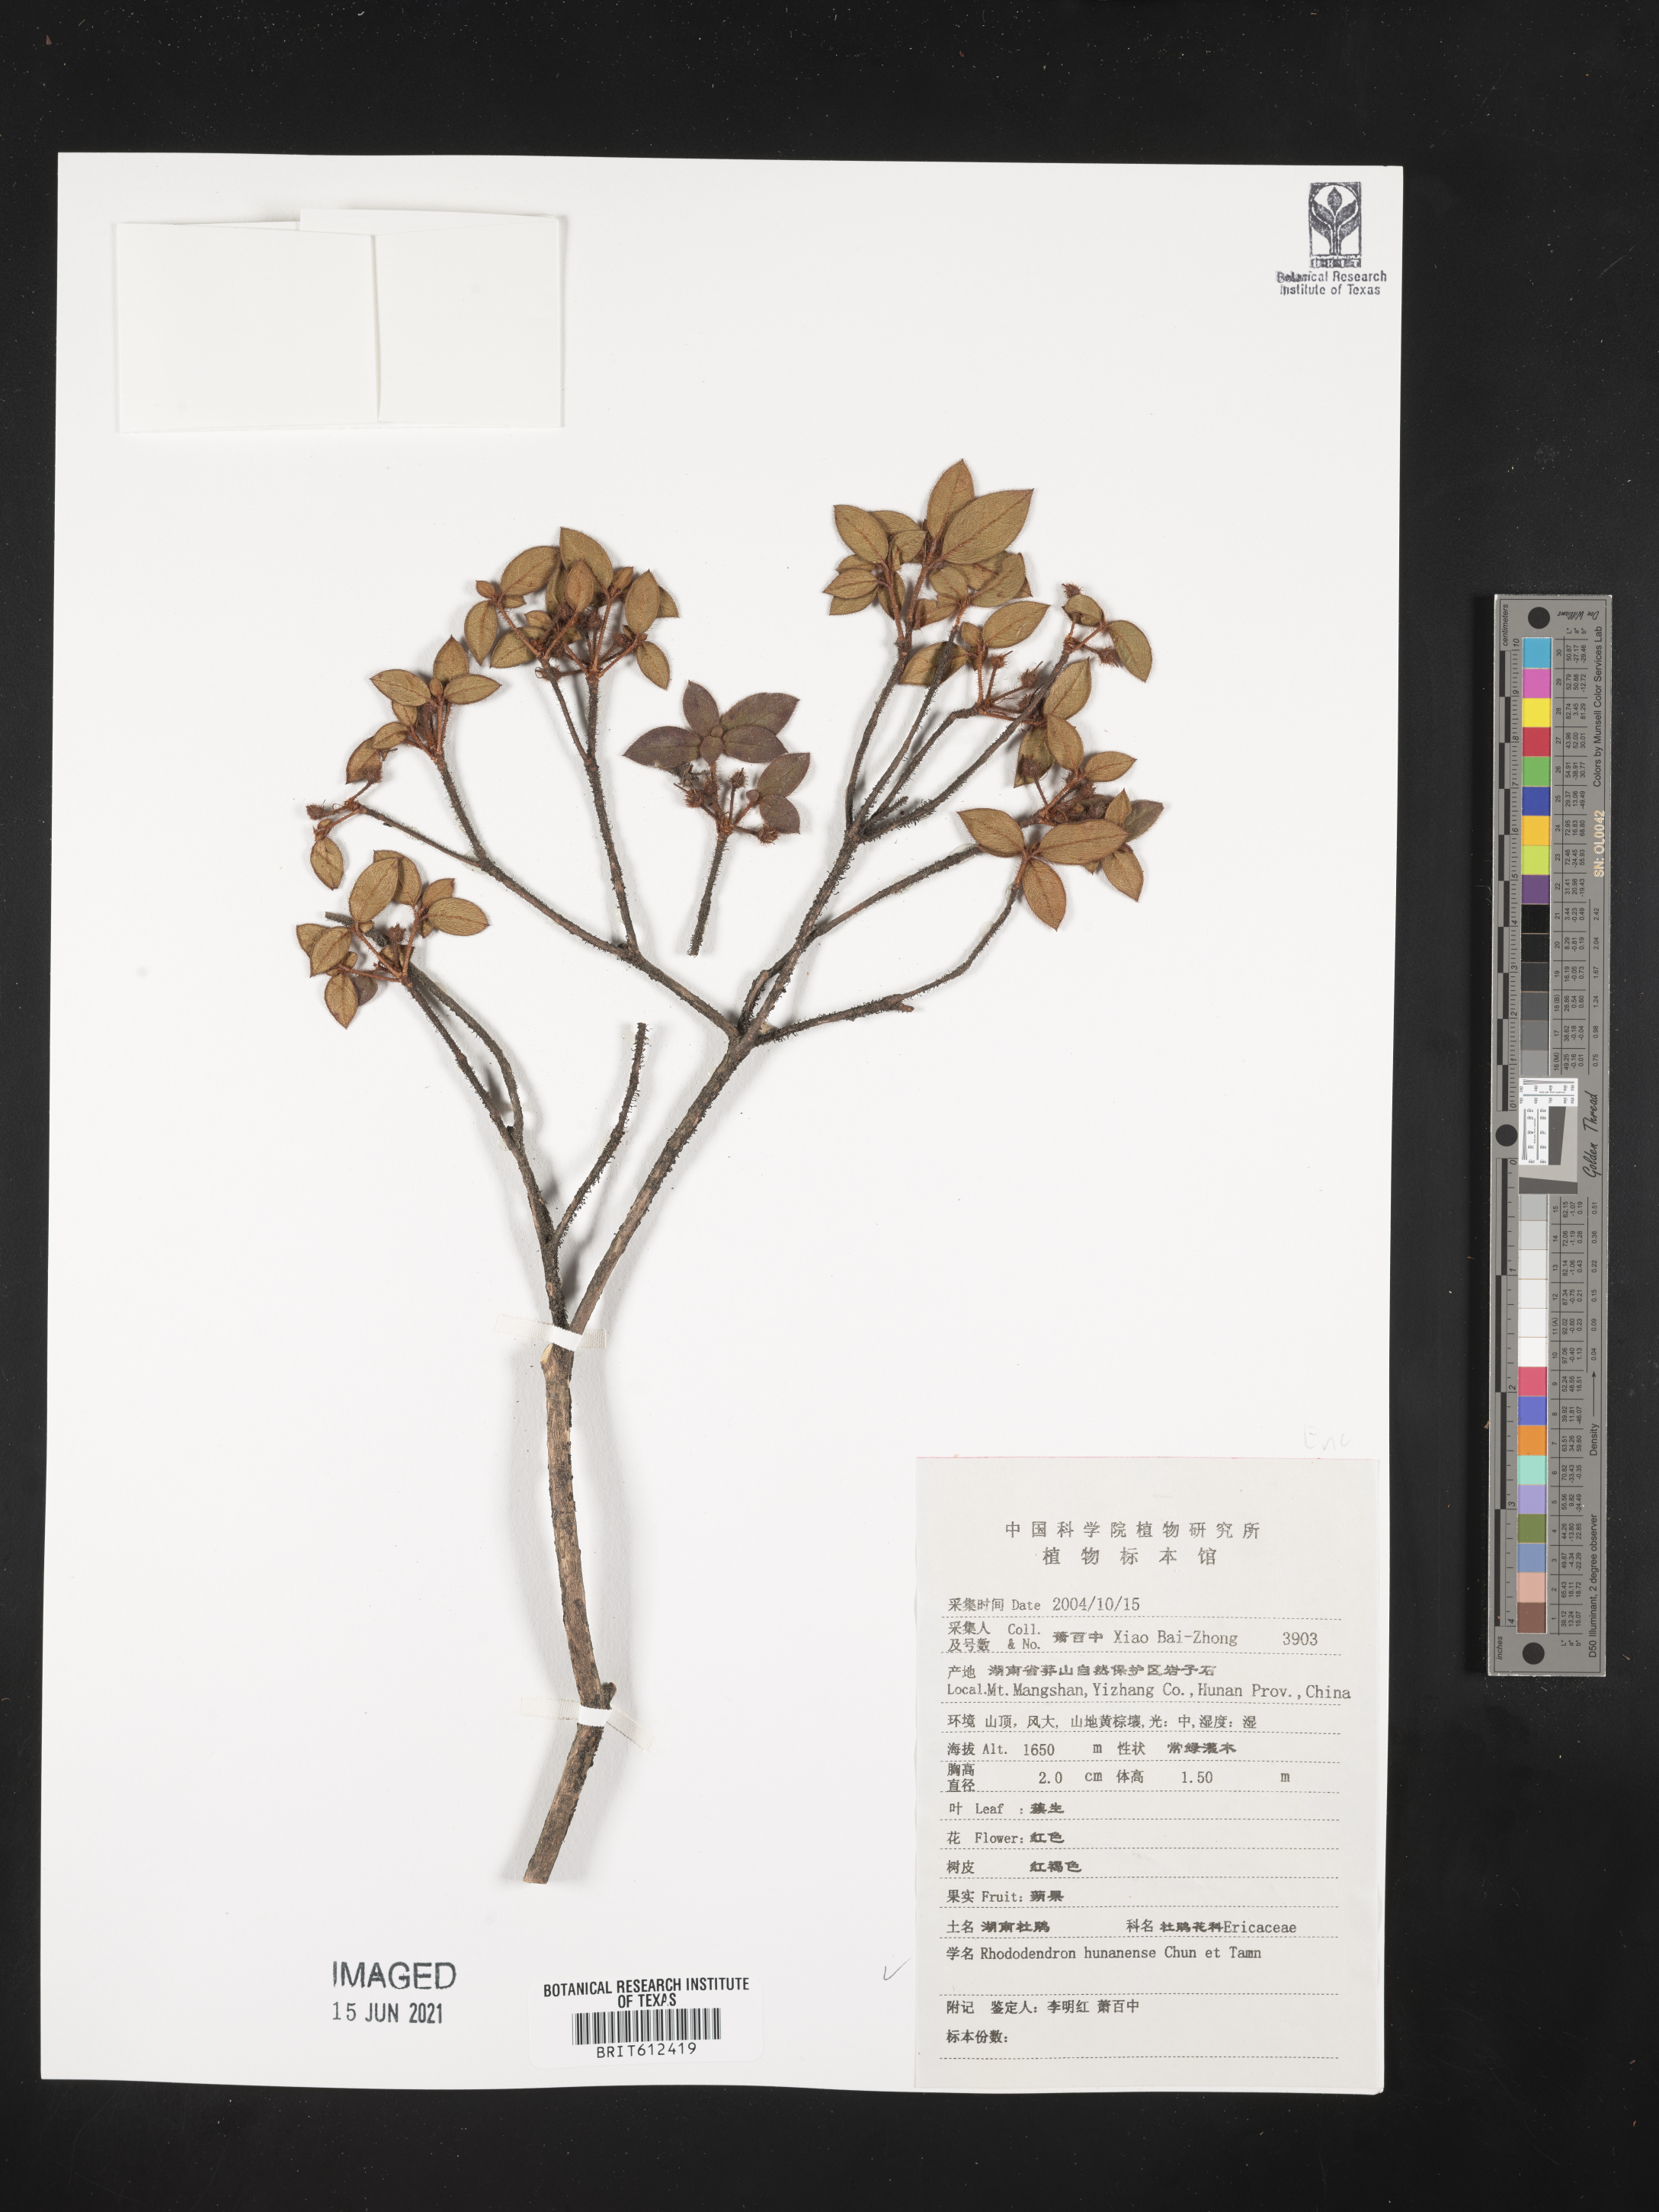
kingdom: Plantae
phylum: Tracheophyta
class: Magnoliopsida
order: Ericales
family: Ericaceae
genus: Rhododendron
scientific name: Rhododendron hunanense
